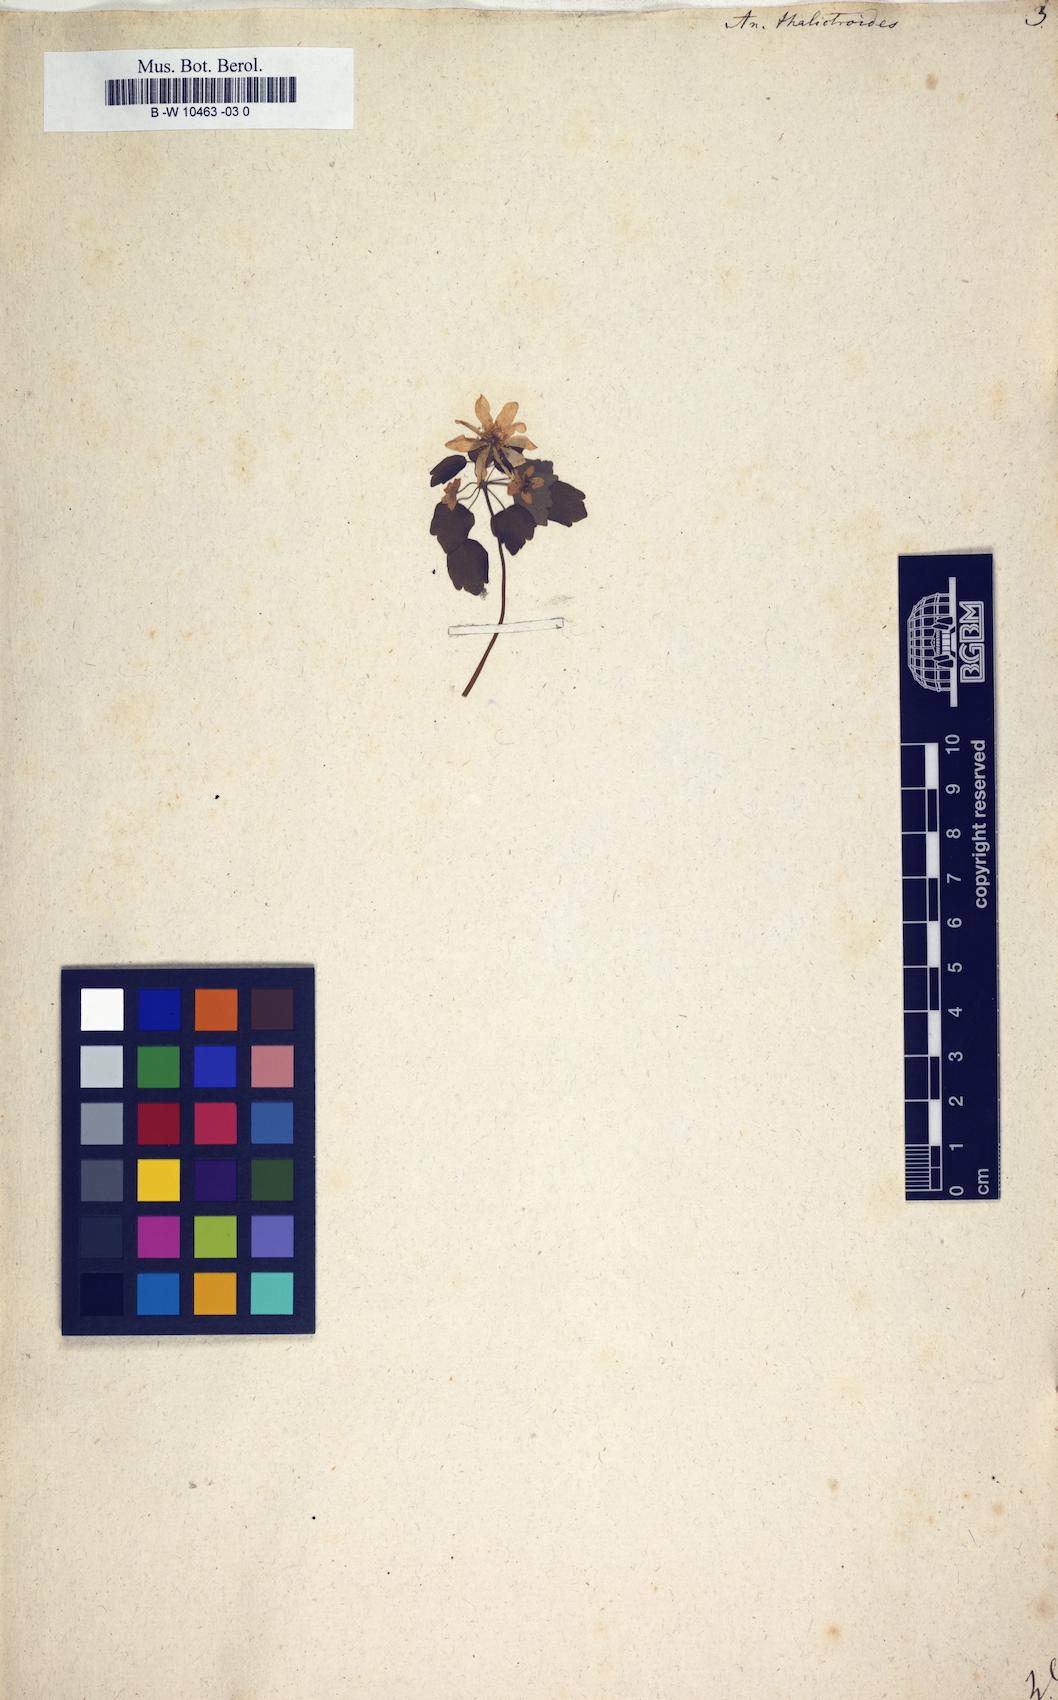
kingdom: Plantae
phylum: Tracheophyta
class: Magnoliopsida
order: Ranunculales
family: Ranunculaceae
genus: Thalictrum
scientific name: Thalictrum thalictroides
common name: Rue-anemone
